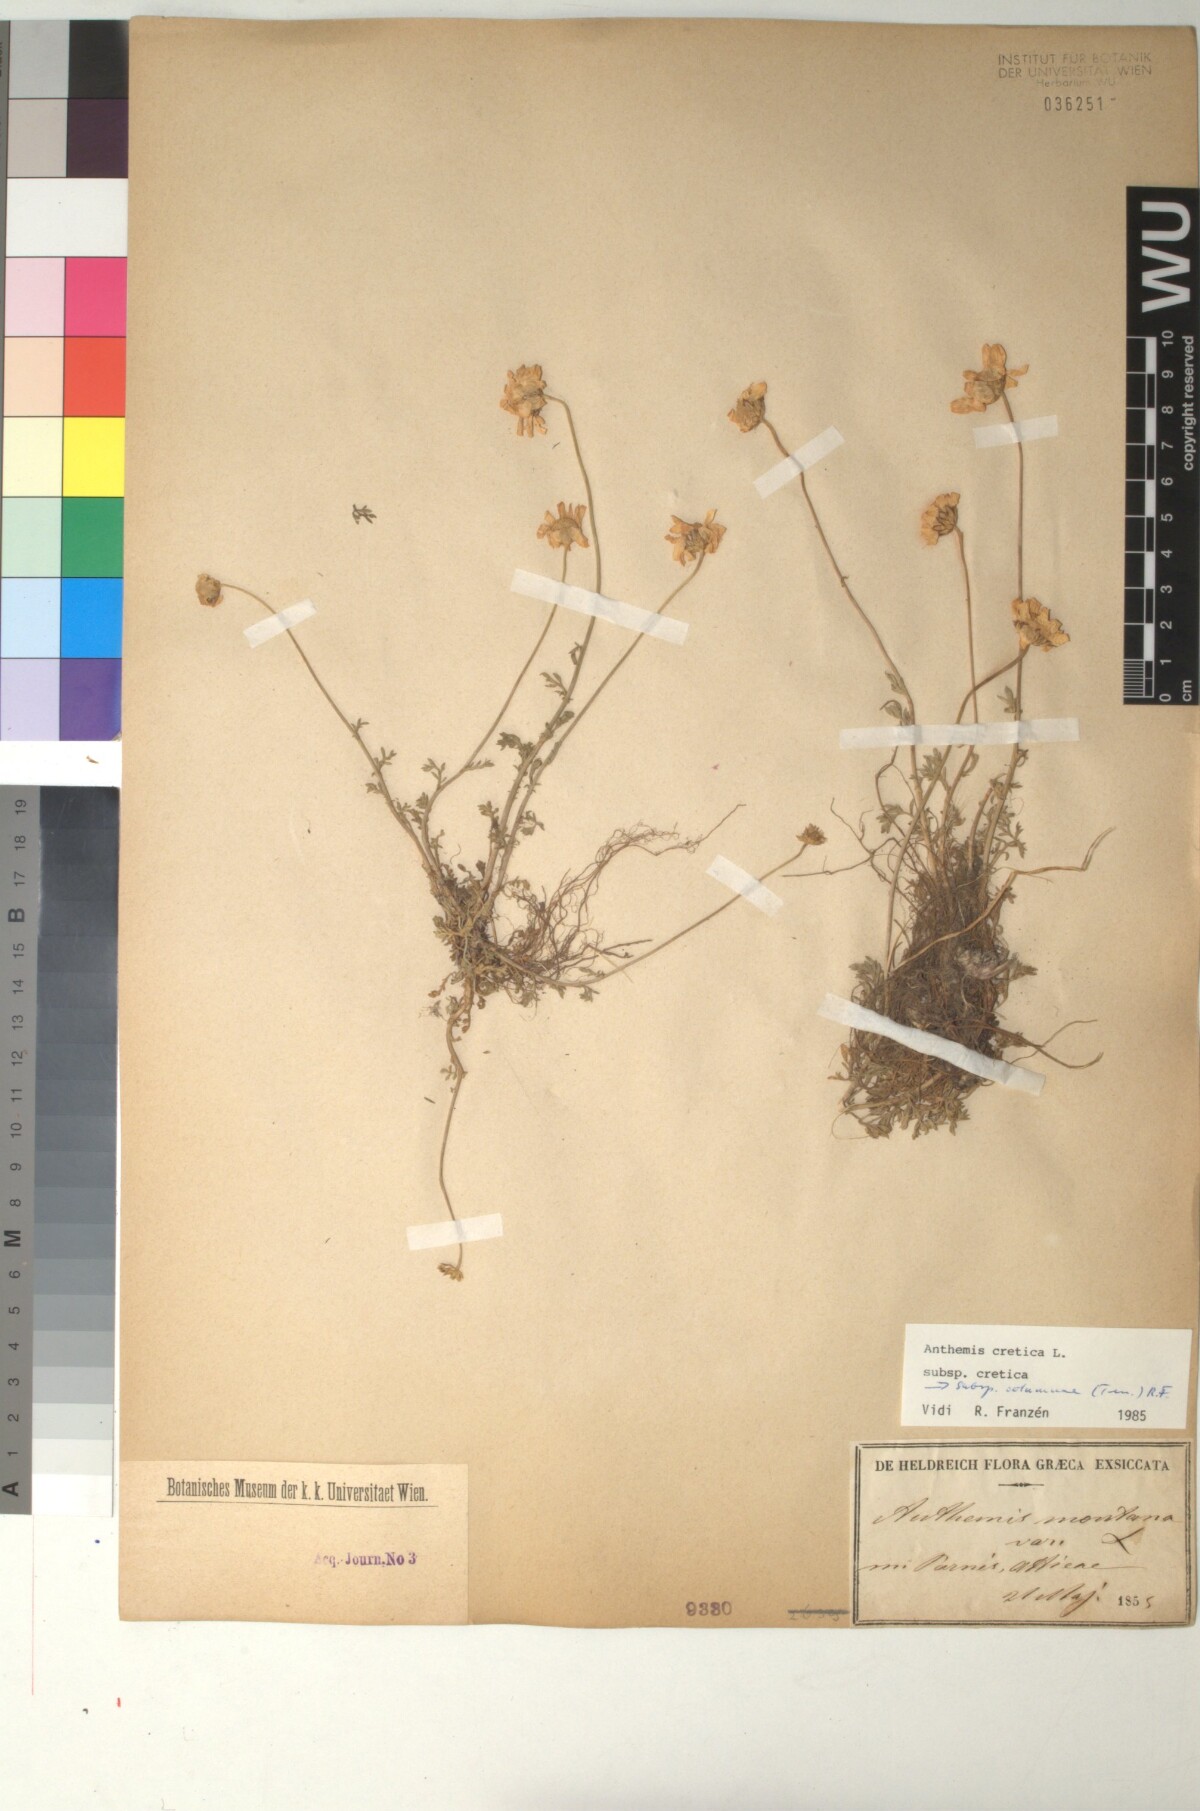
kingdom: Plantae
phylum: Tracheophyta
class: Magnoliopsida
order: Asterales
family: Asteraceae
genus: Anthemis
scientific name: Anthemis cretica
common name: Mountain dog-daisy
